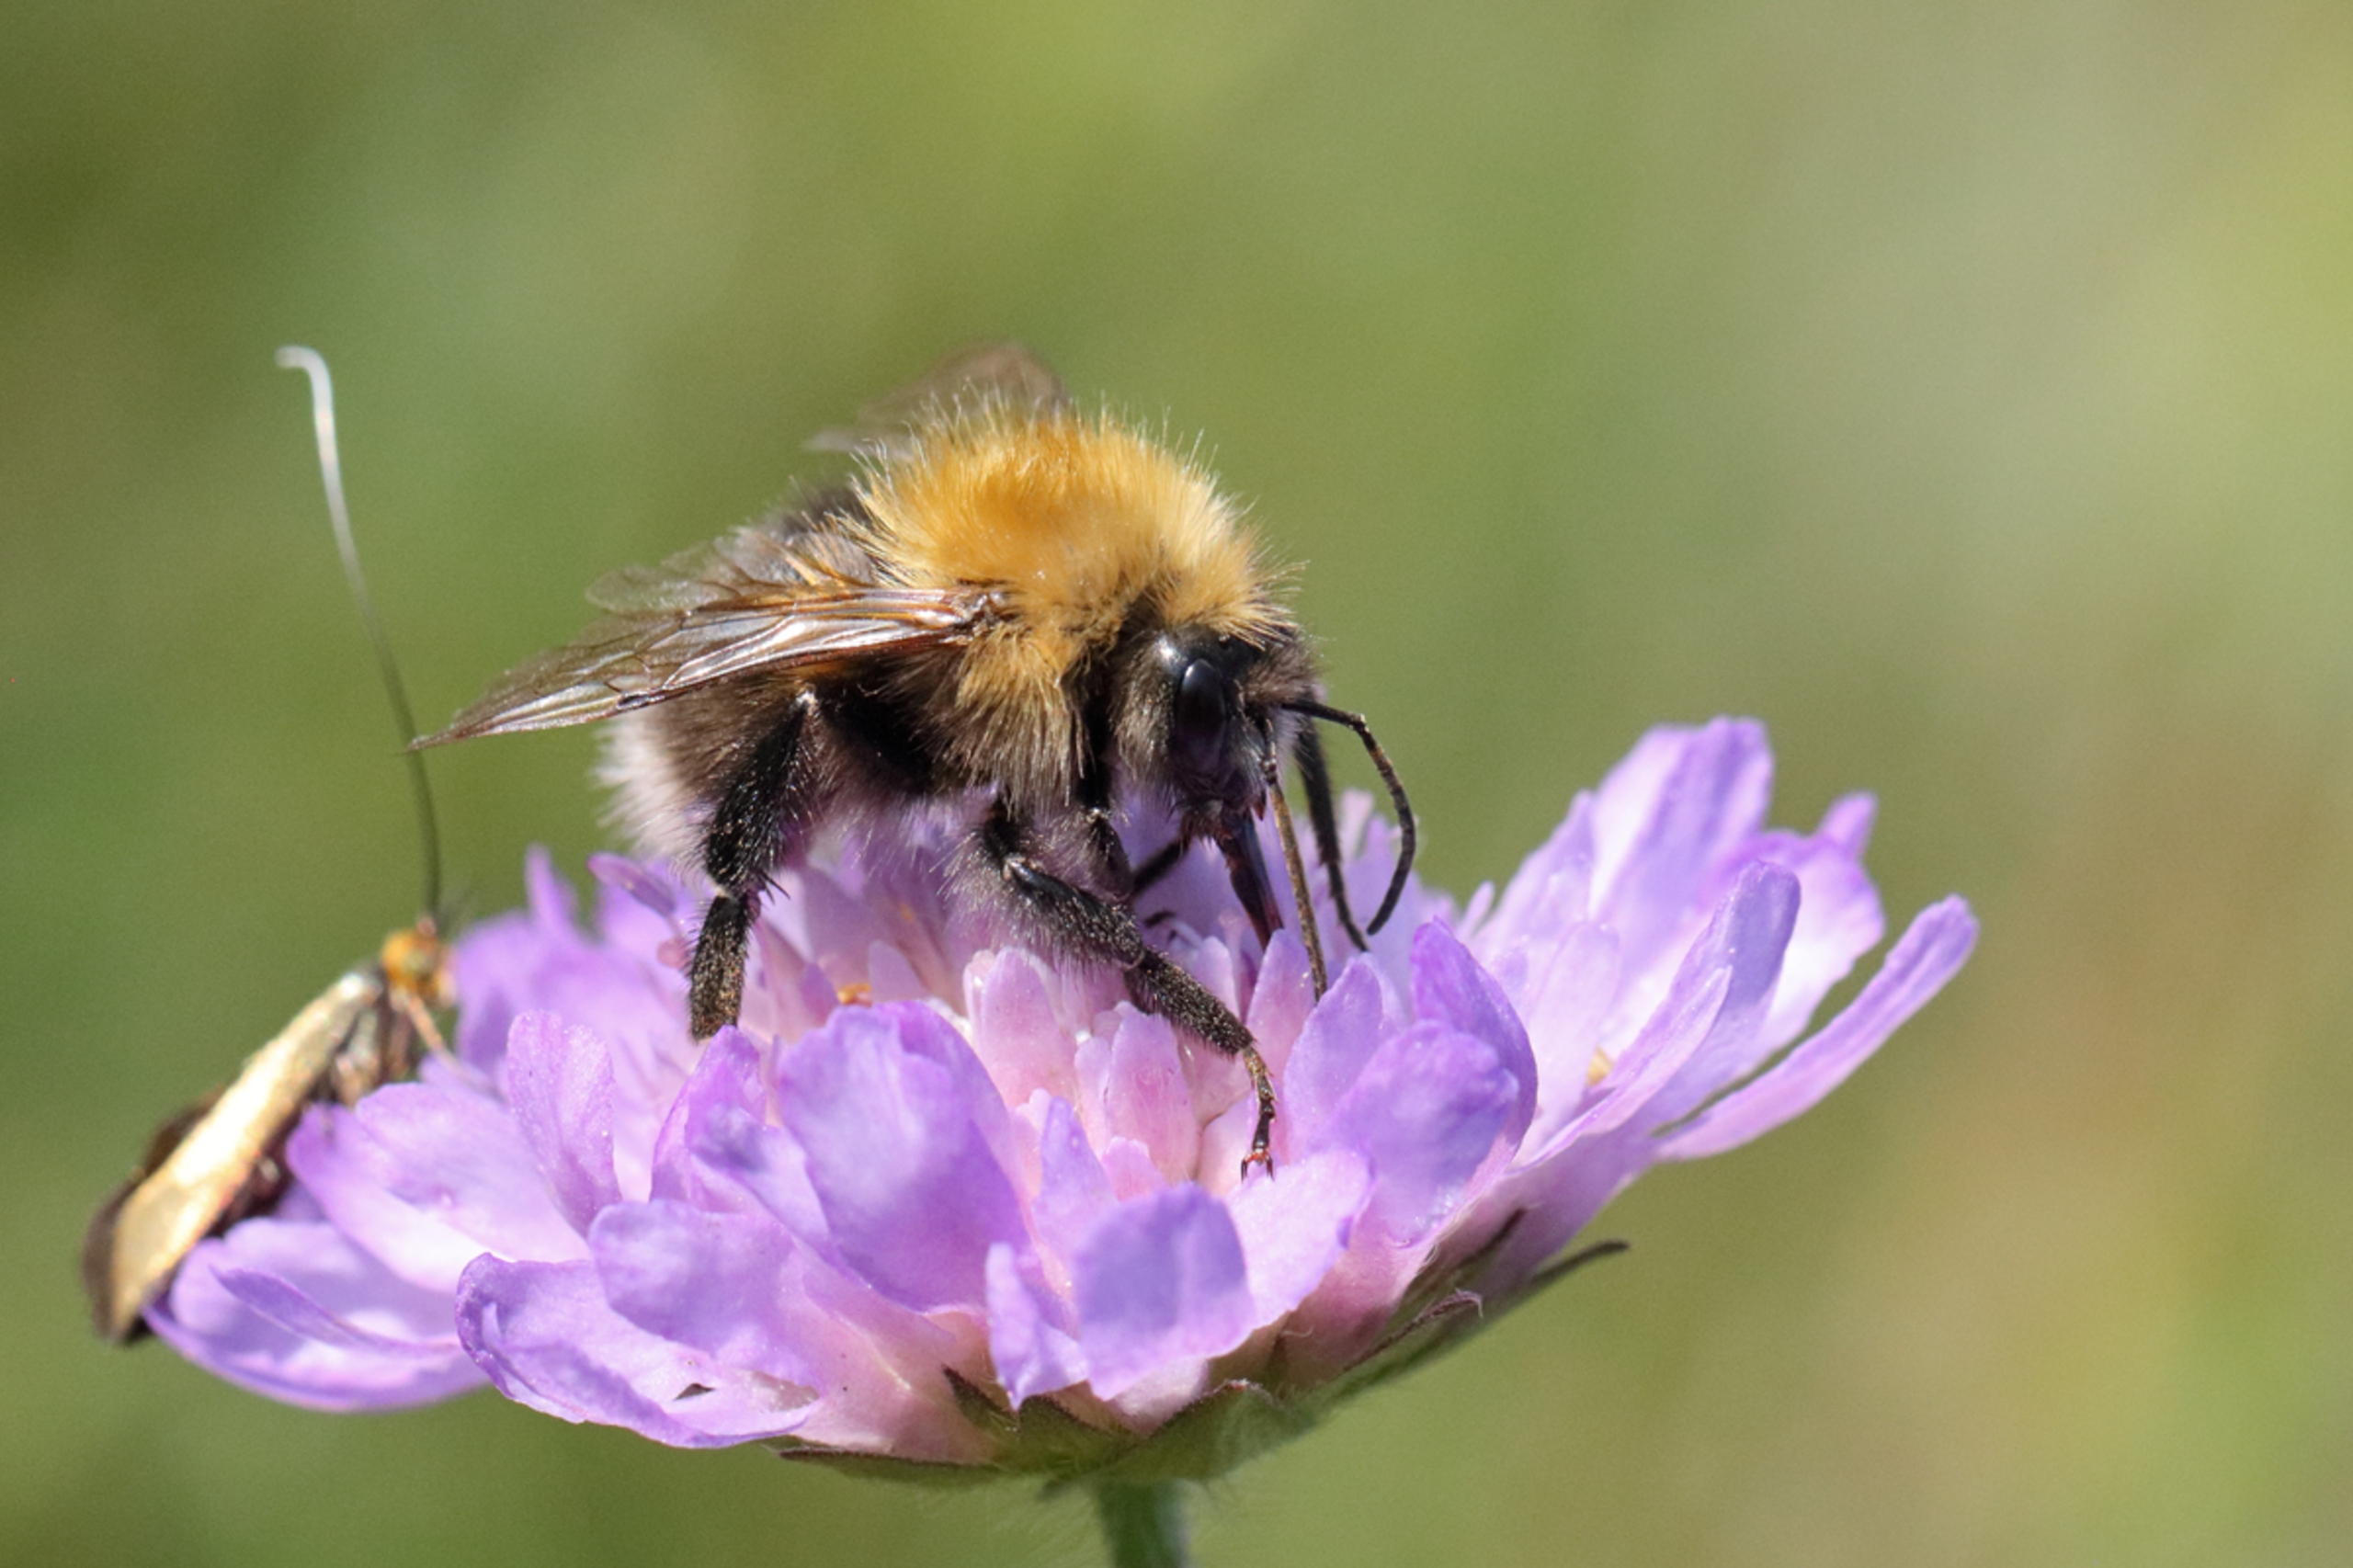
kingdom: Animalia
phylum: Arthropoda
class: Insecta
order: Hymenoptera
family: Apidae
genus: Bombus
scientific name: Bombus hypnorum
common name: Hushumle
